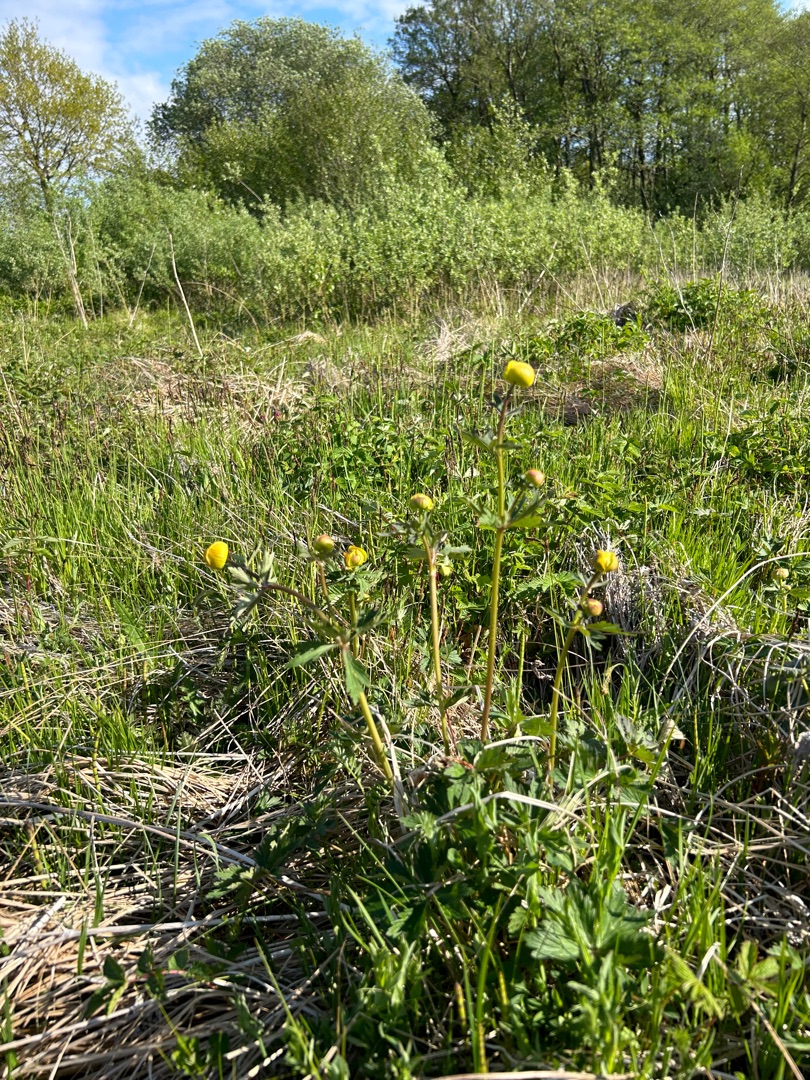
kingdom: Plantae
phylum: Tracheophyta
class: Magnoliopsida
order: Ranunculales
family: Ranunculaceae
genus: Trollius
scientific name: Trollius europaeus
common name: Engblomme
